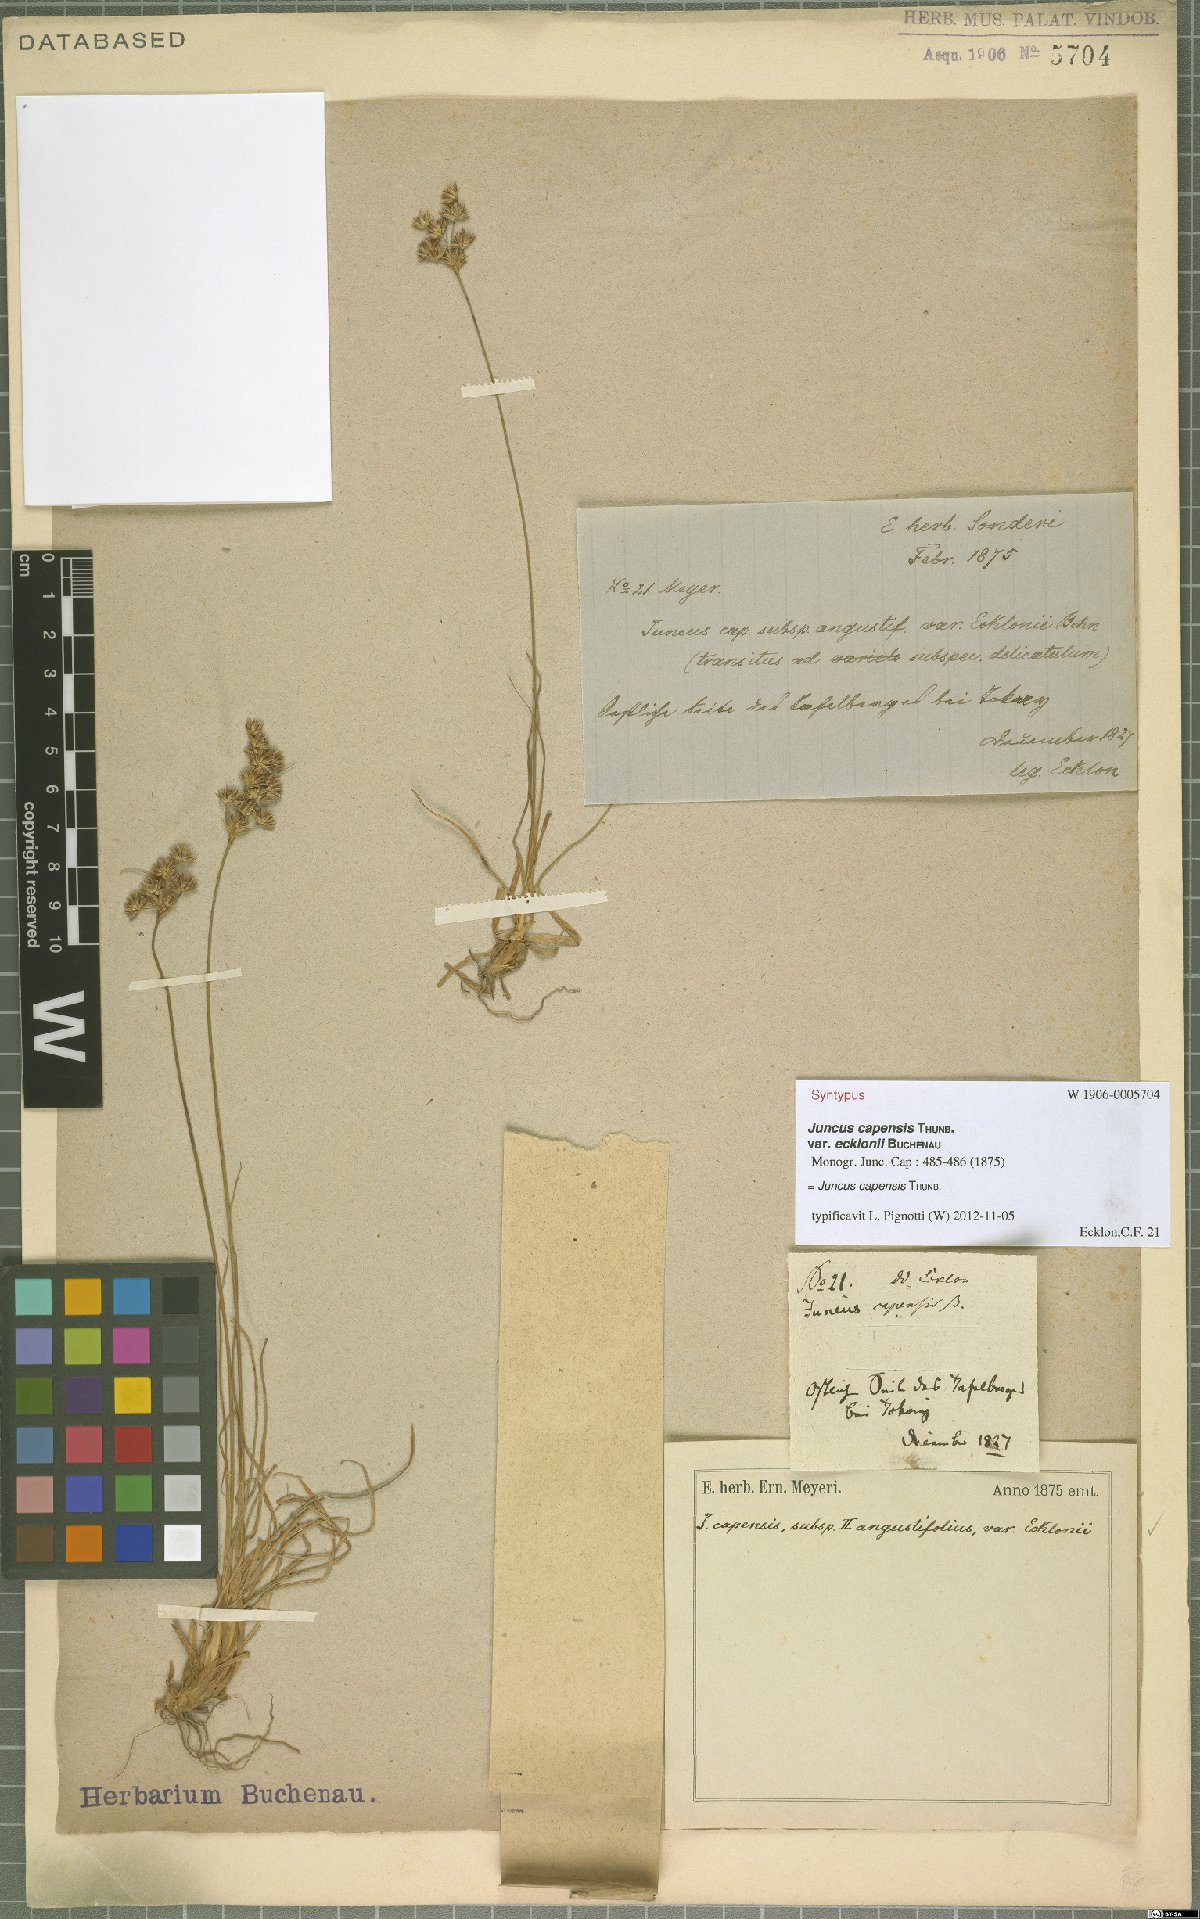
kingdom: Plantae
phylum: Tracheophyta
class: Liliopsida
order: Poales
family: Juncaceae
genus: Juncus
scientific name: Juncus capensis
